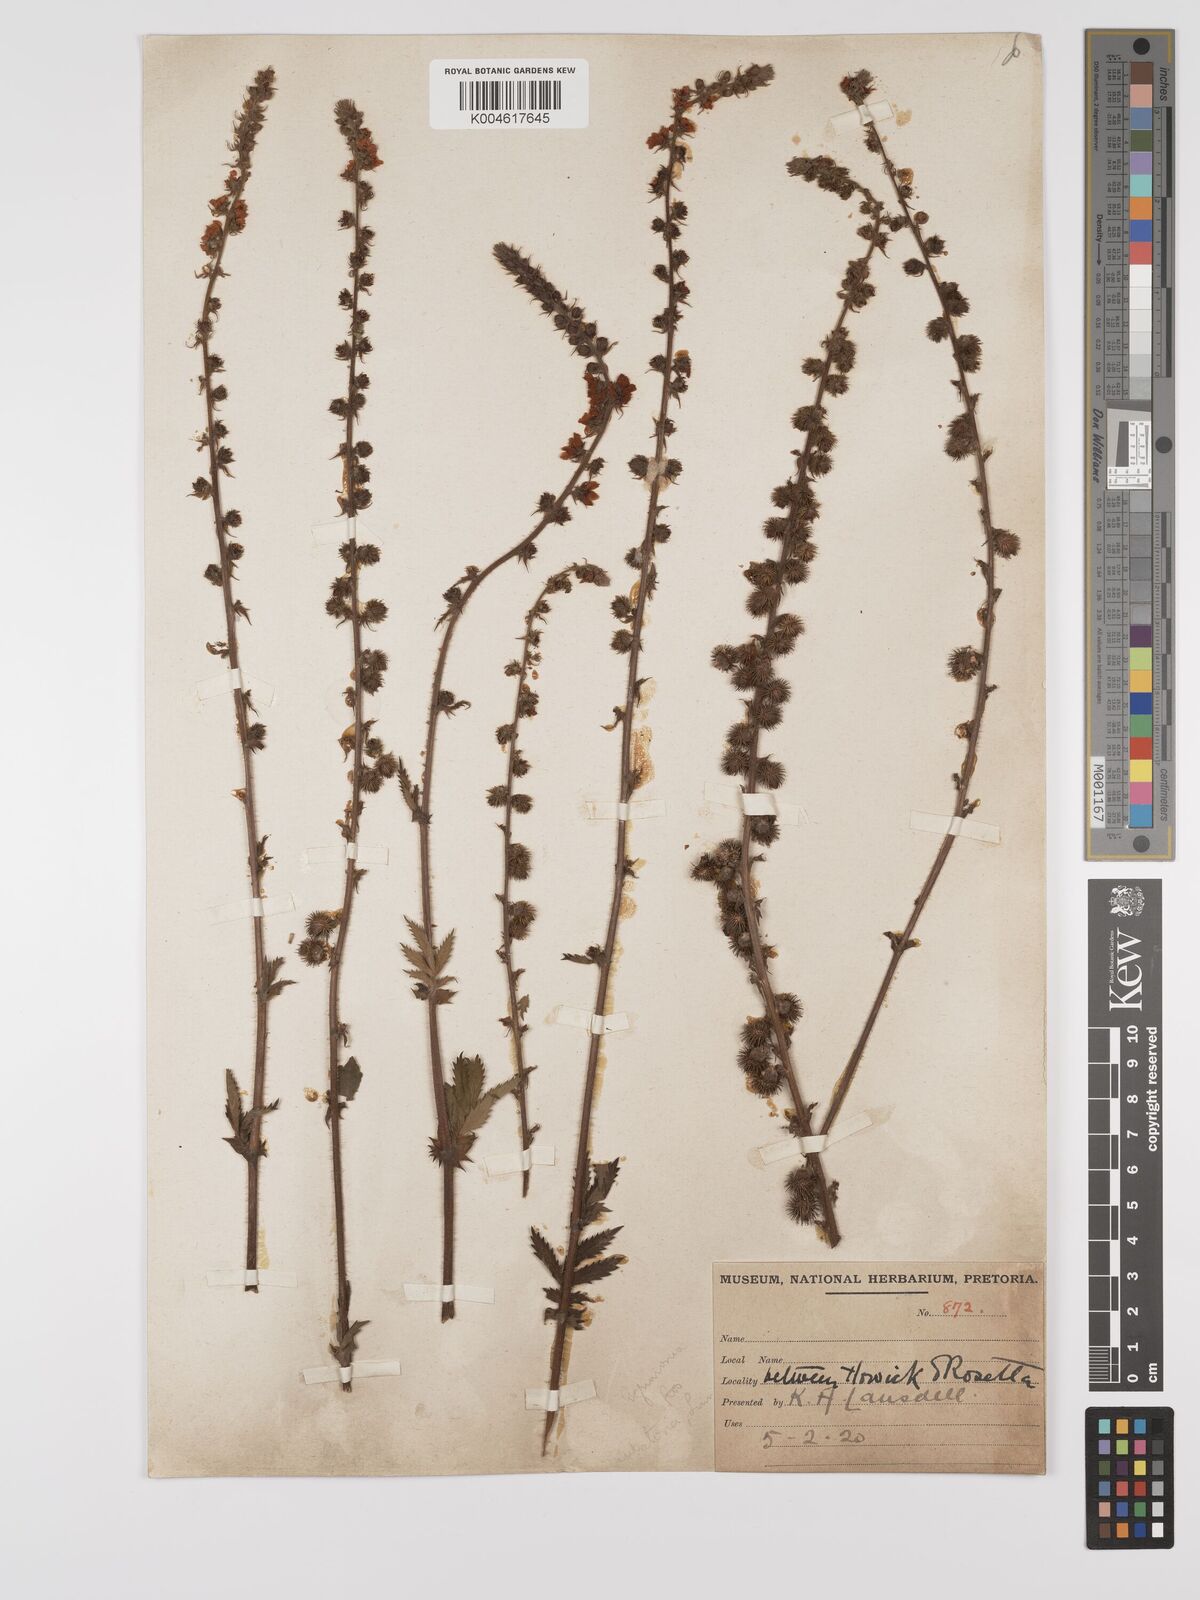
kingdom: Plantae
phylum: Tracheophyta
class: Magnoliopsida
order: Rosales
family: Rosaceae
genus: Agrimonia
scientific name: Agrimonia eupatoria
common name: Agrimony
